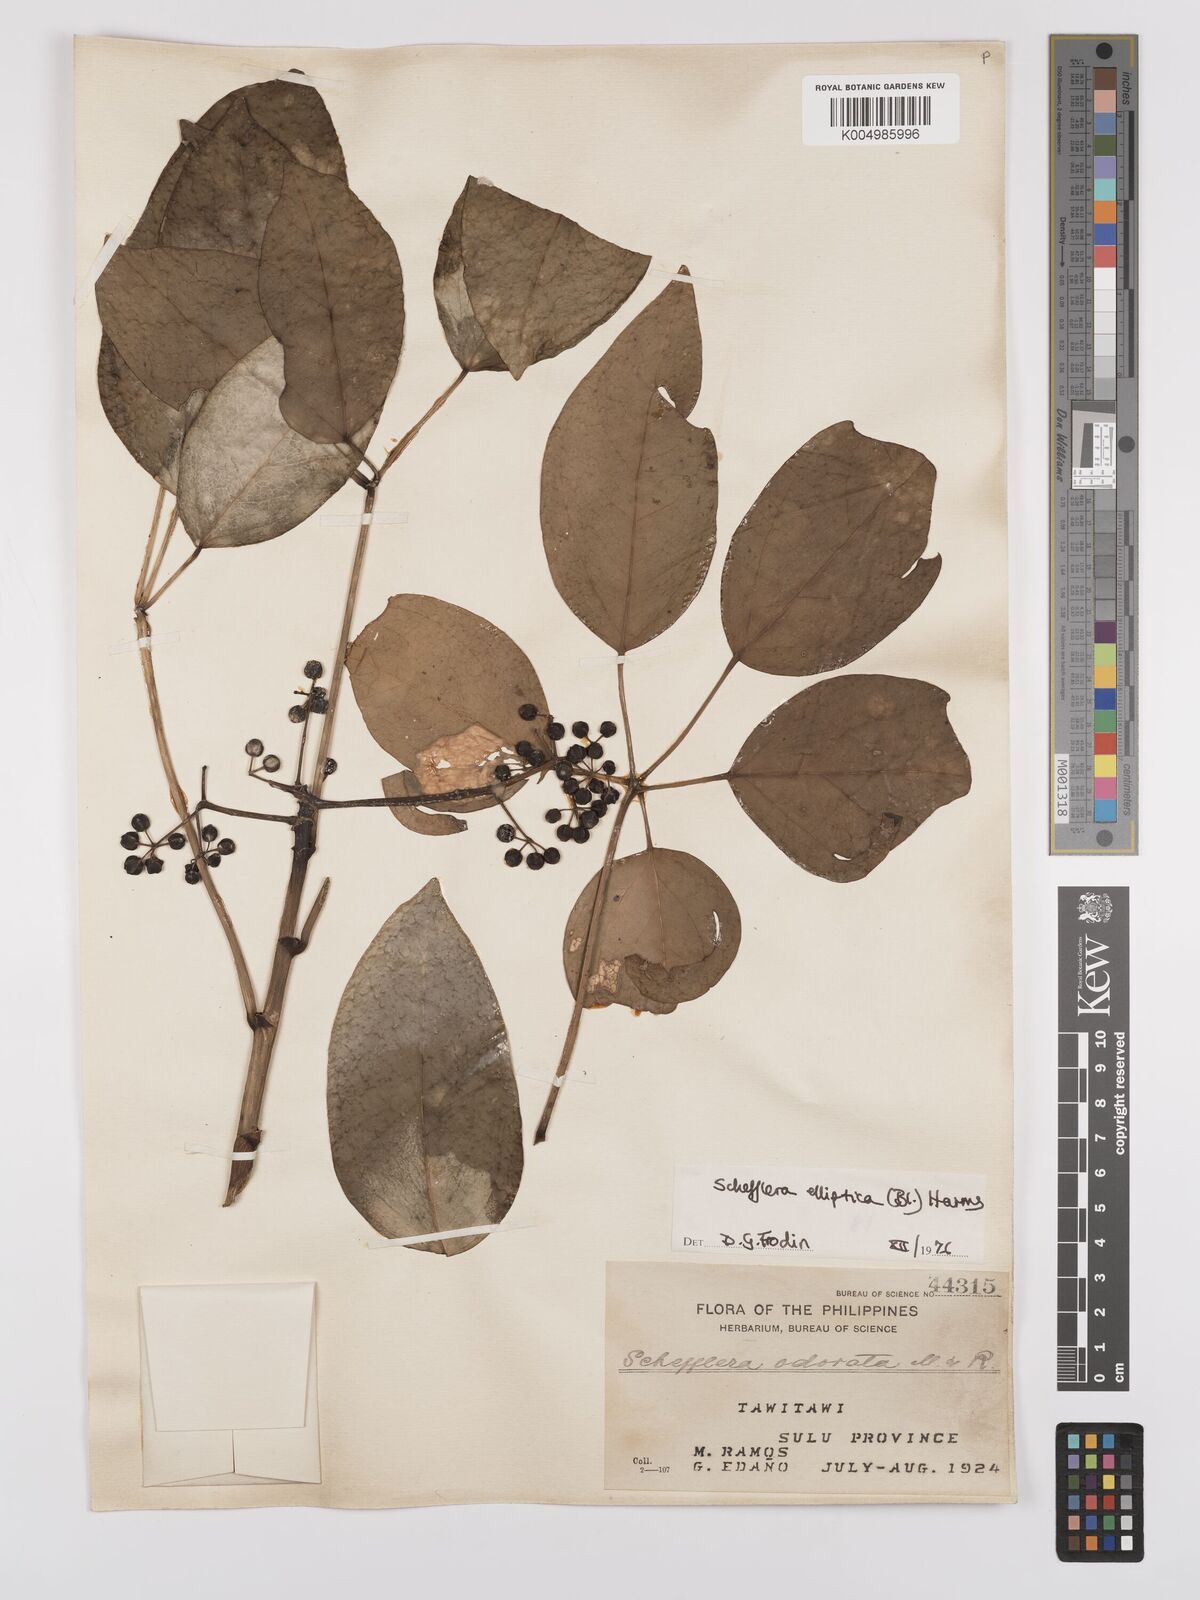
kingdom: Plantae
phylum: Tracheophyta
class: Magnoliopsida
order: Apiales
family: Araliaceae
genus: Heptapleurum
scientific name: Heptapleurum ellipticum
